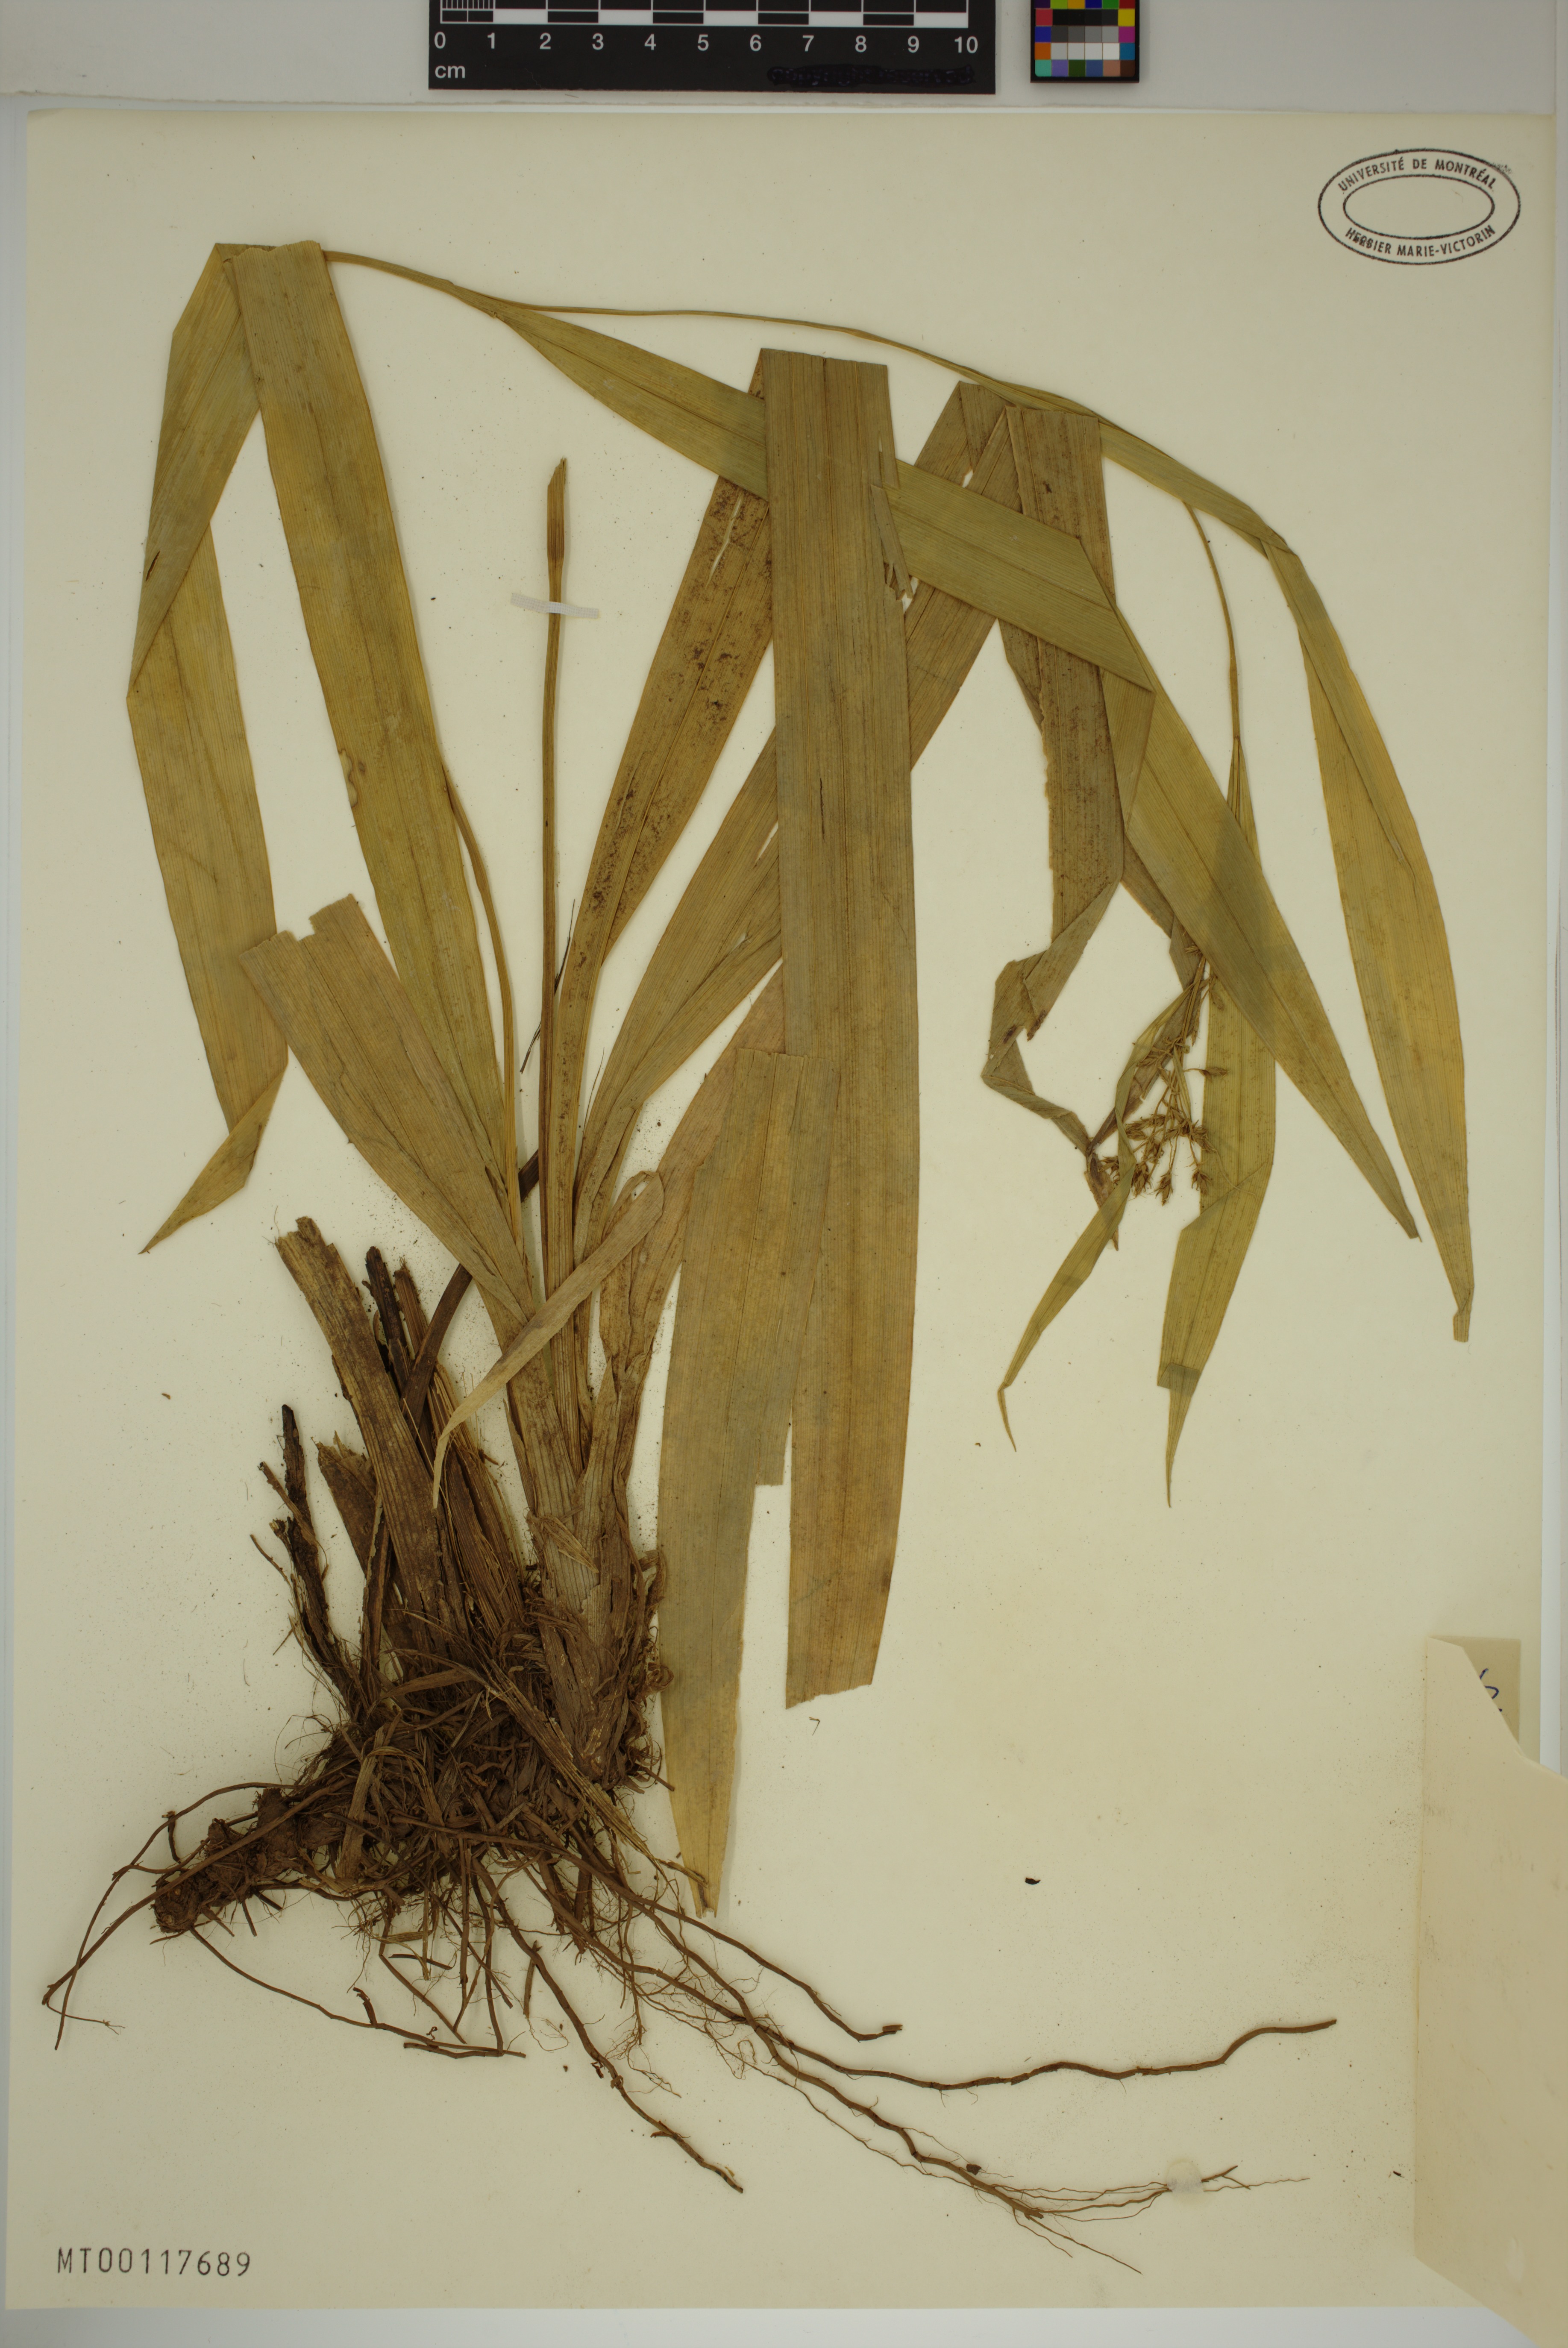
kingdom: Plantae
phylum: Tracheophyta
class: Liliopsida
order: Poales
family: Cyperaceae
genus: Carex
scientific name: Carex commixta
